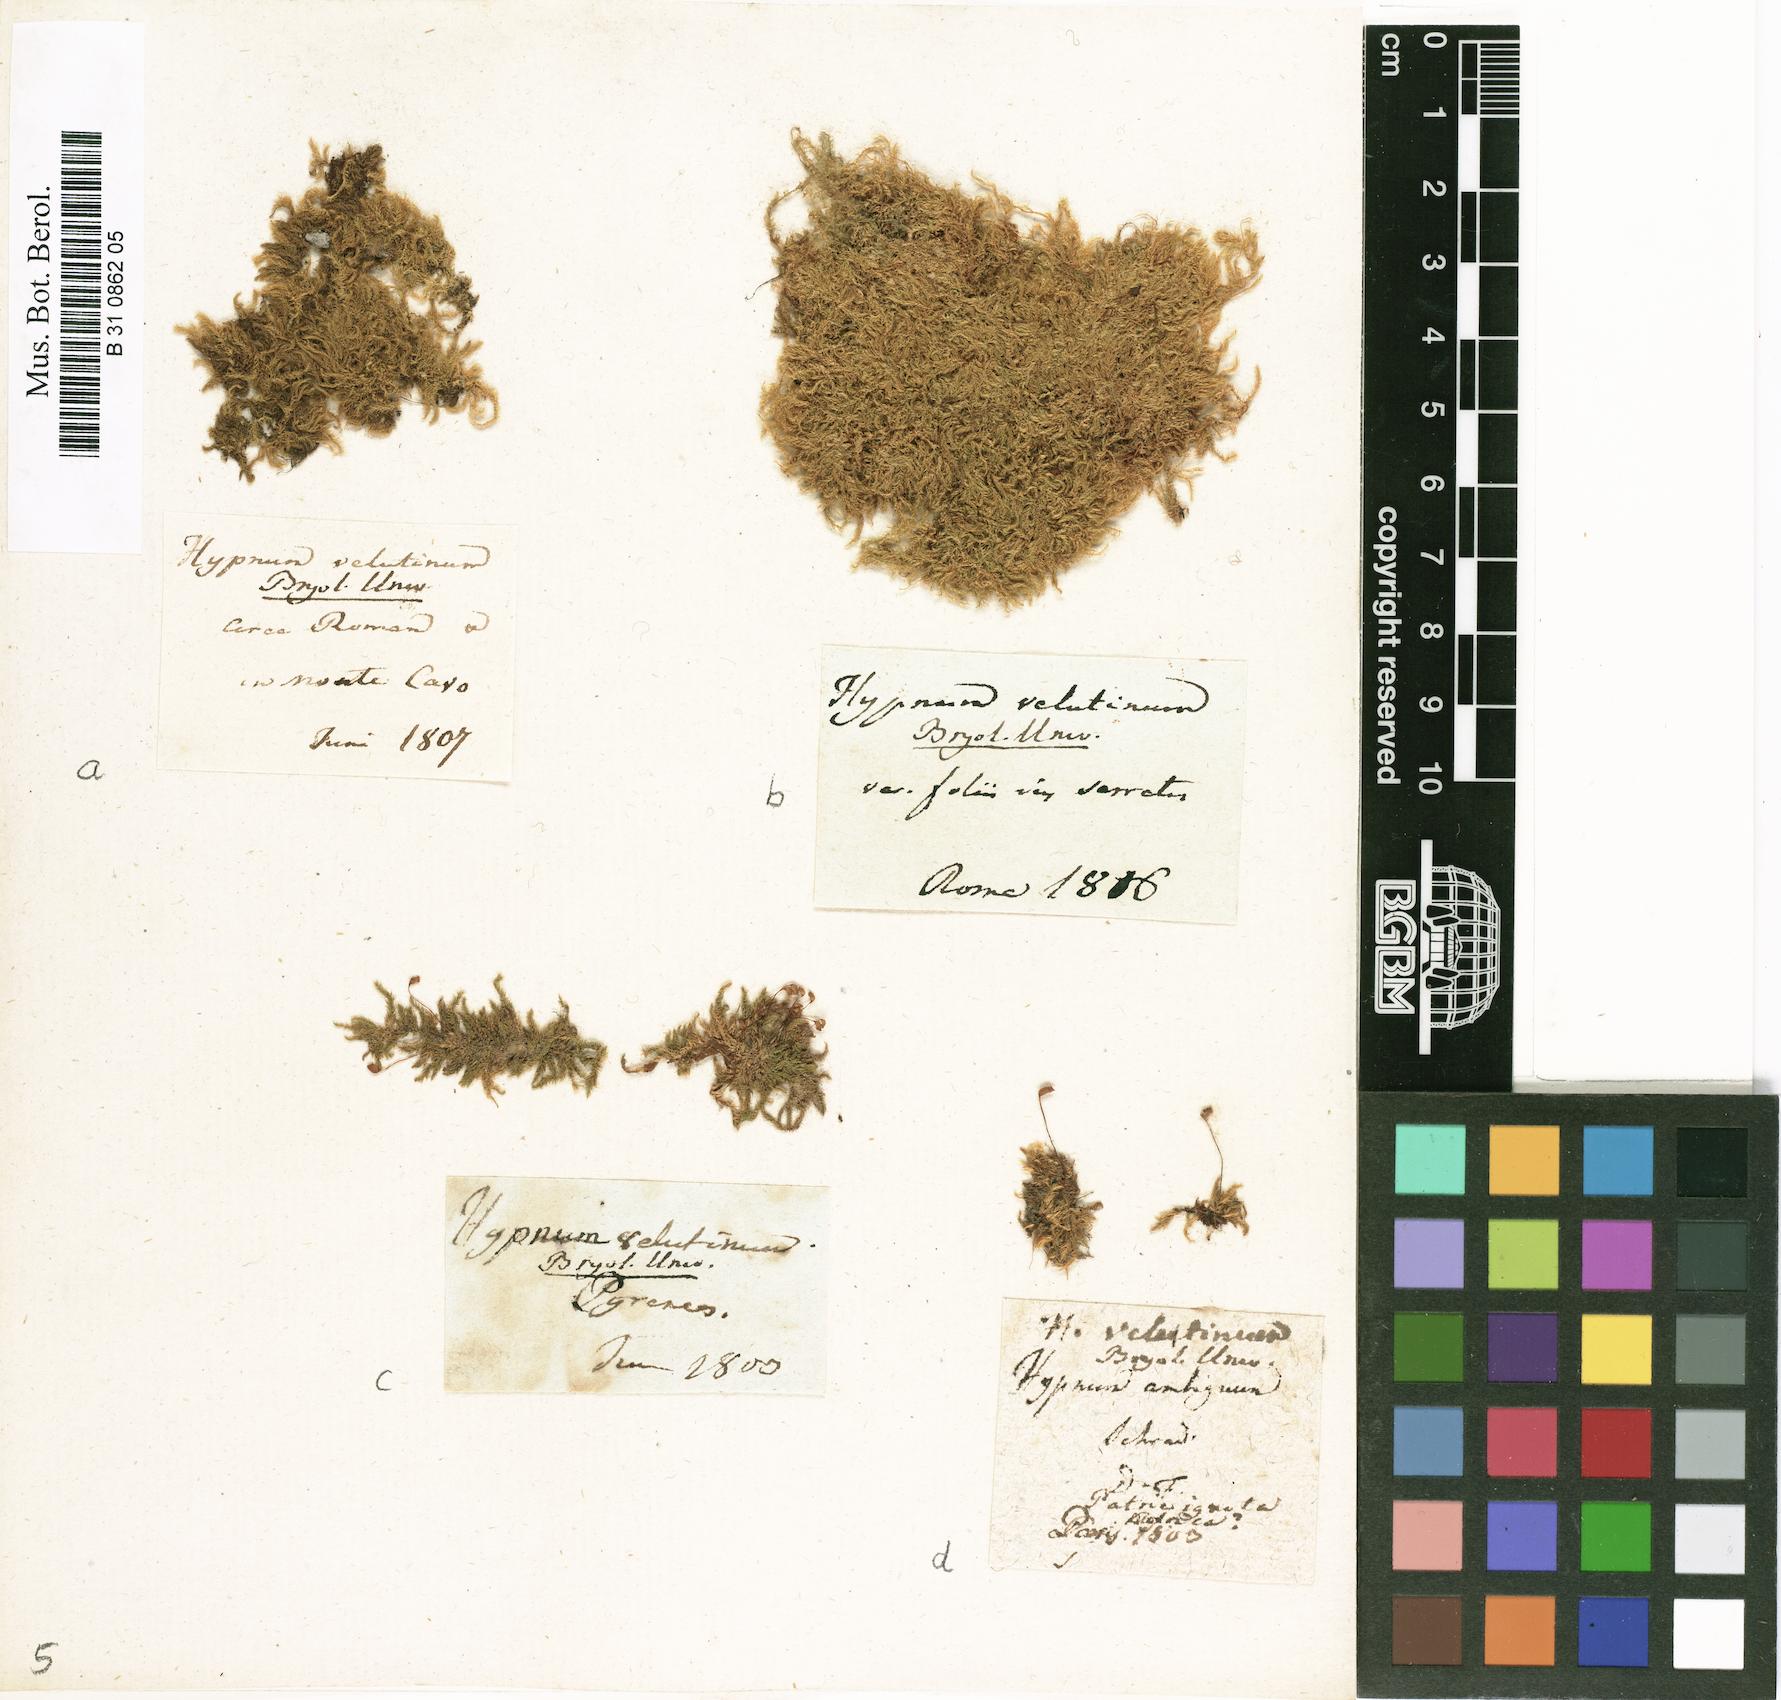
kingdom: Plantae
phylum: Bryophyta
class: Bryopsida
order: Hypnales
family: Brachytheciaceae
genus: Brachytheciastrum
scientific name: Brachytheciastrum velutinum
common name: Velvet feather-moss
